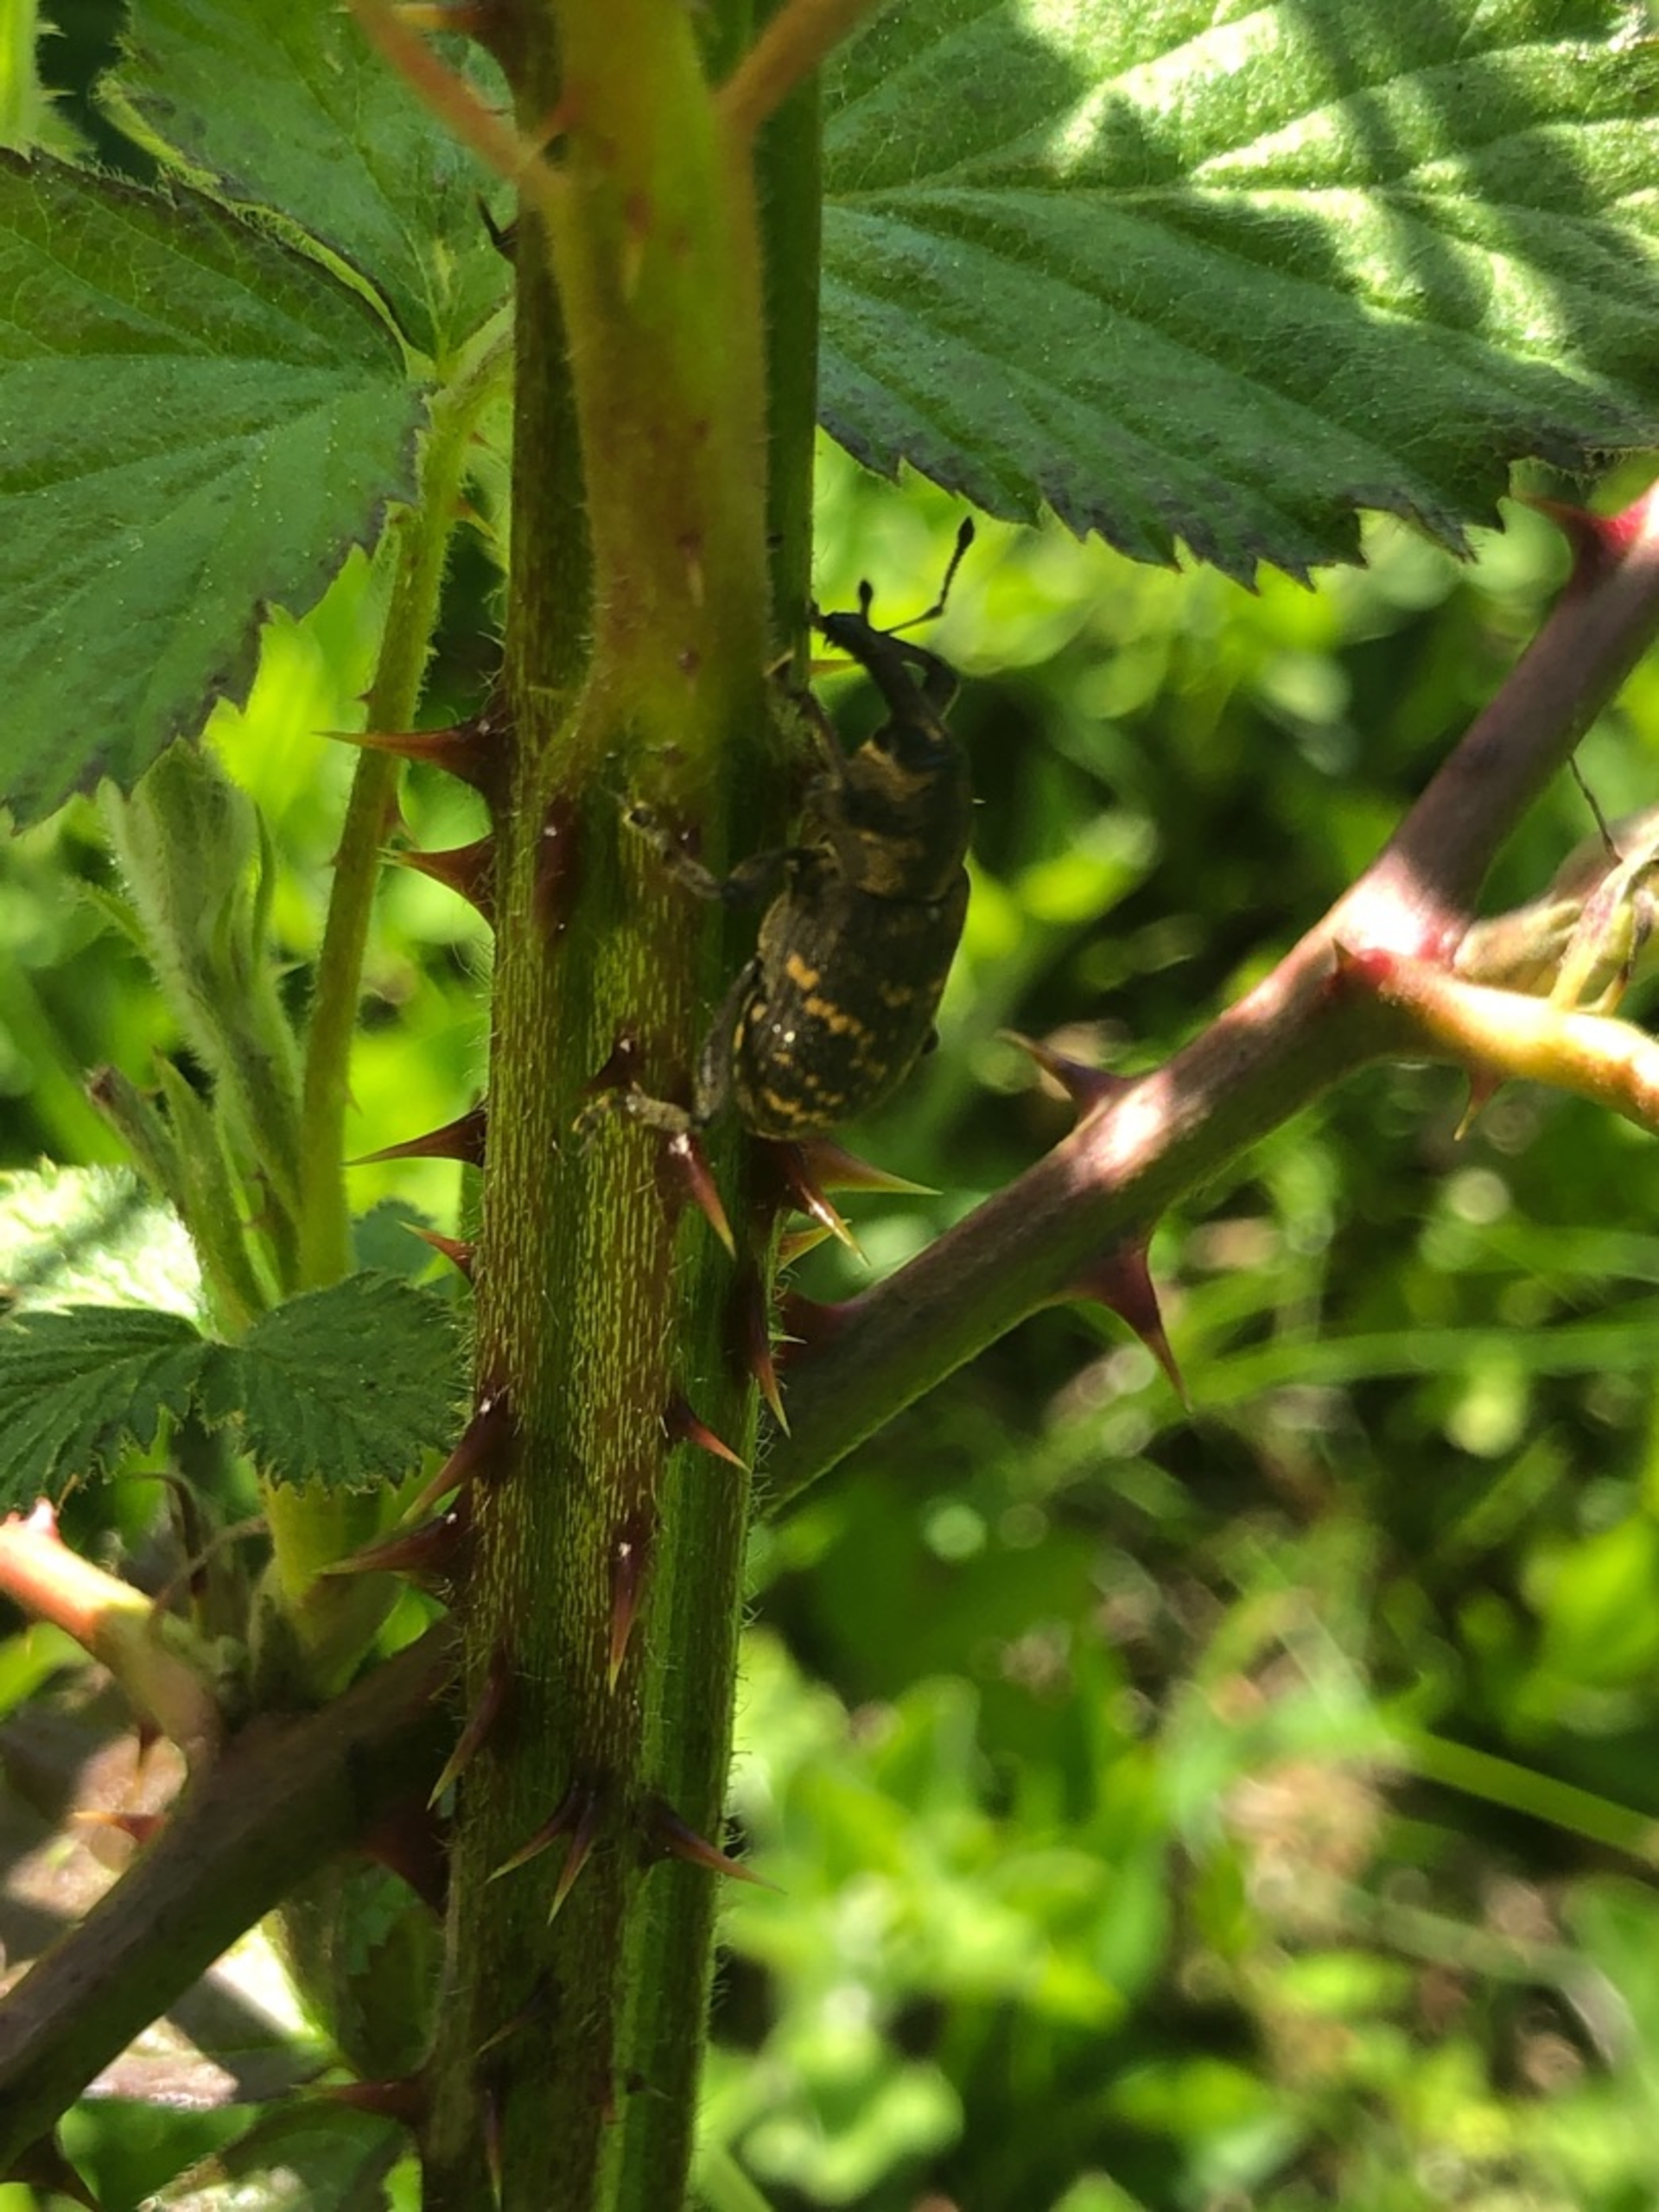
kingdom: Animalia
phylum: Arthropoda
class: Insecta
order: Coleoptera
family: Curculionidae
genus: Hylobius
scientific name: Hylobius abietis
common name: Stor nåletræsnudebille
